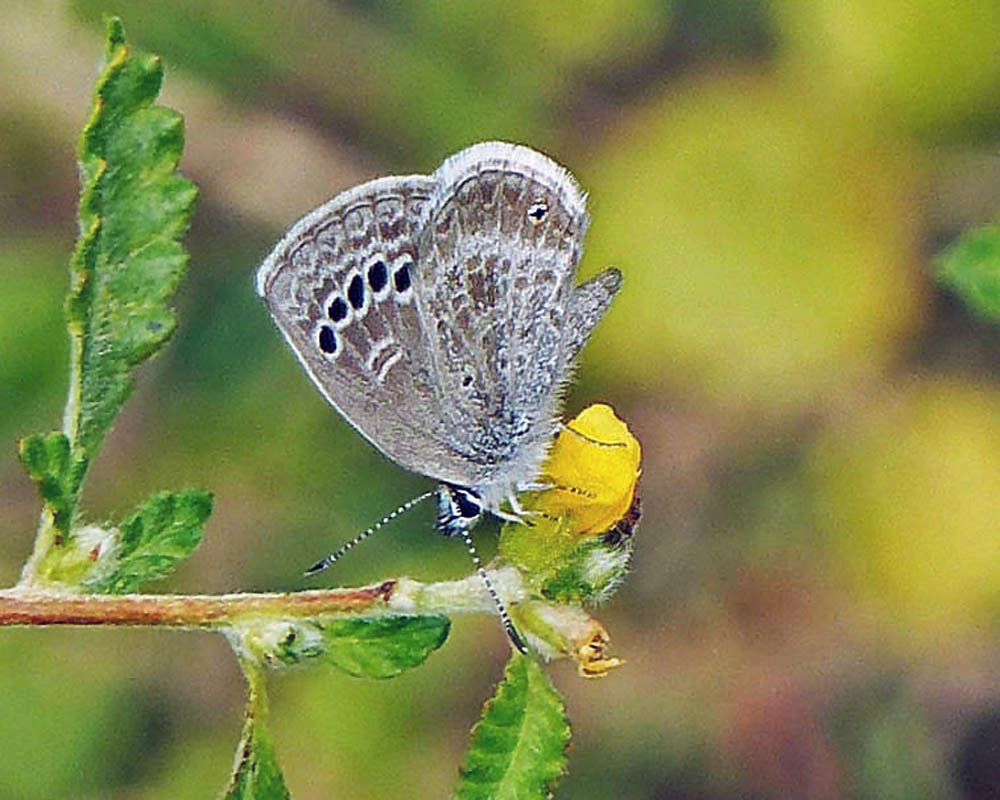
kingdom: Animalia
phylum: Arthropoda
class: Insecta
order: Lepidoptera
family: Lycaenidae
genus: Echinargus
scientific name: Echinargus isola
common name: Reakirt's Blue
